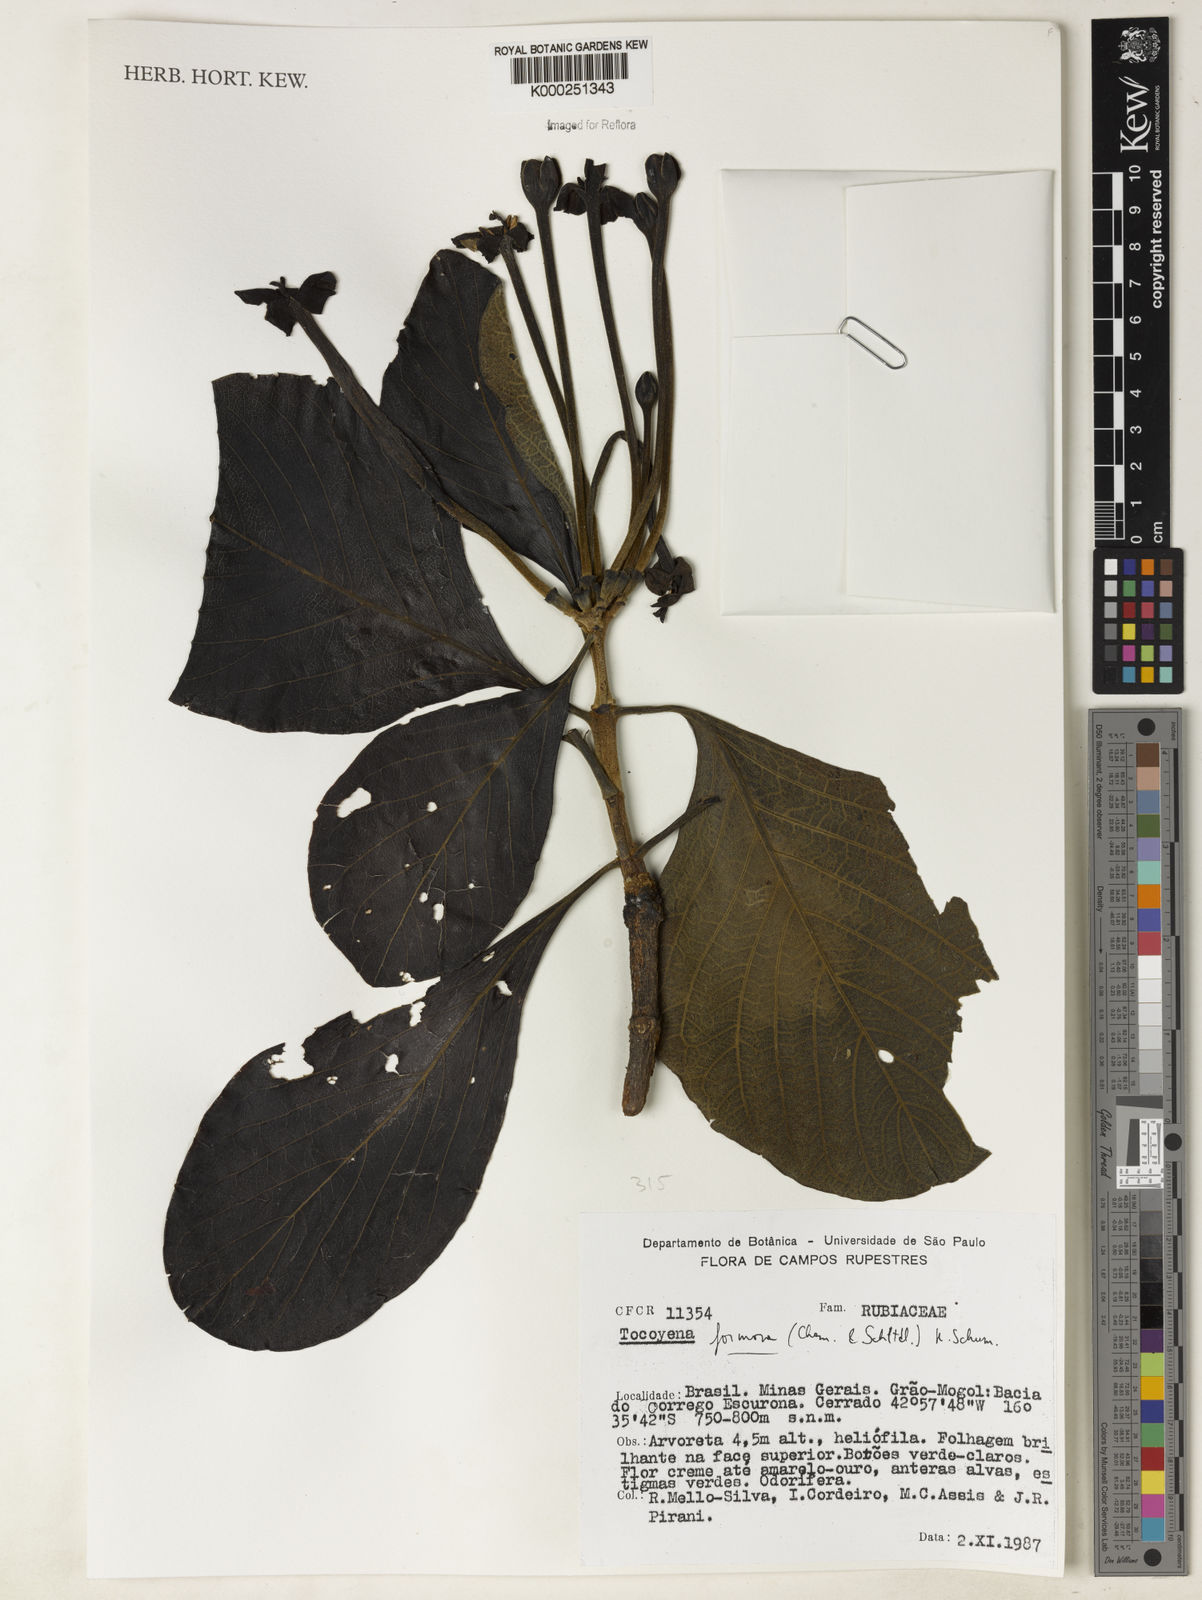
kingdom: Plantae
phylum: Tracheophyta
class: Magnoliopsida
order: Gentianales
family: Rubiaceae
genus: Tocoyena
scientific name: Tocoyena formosa
